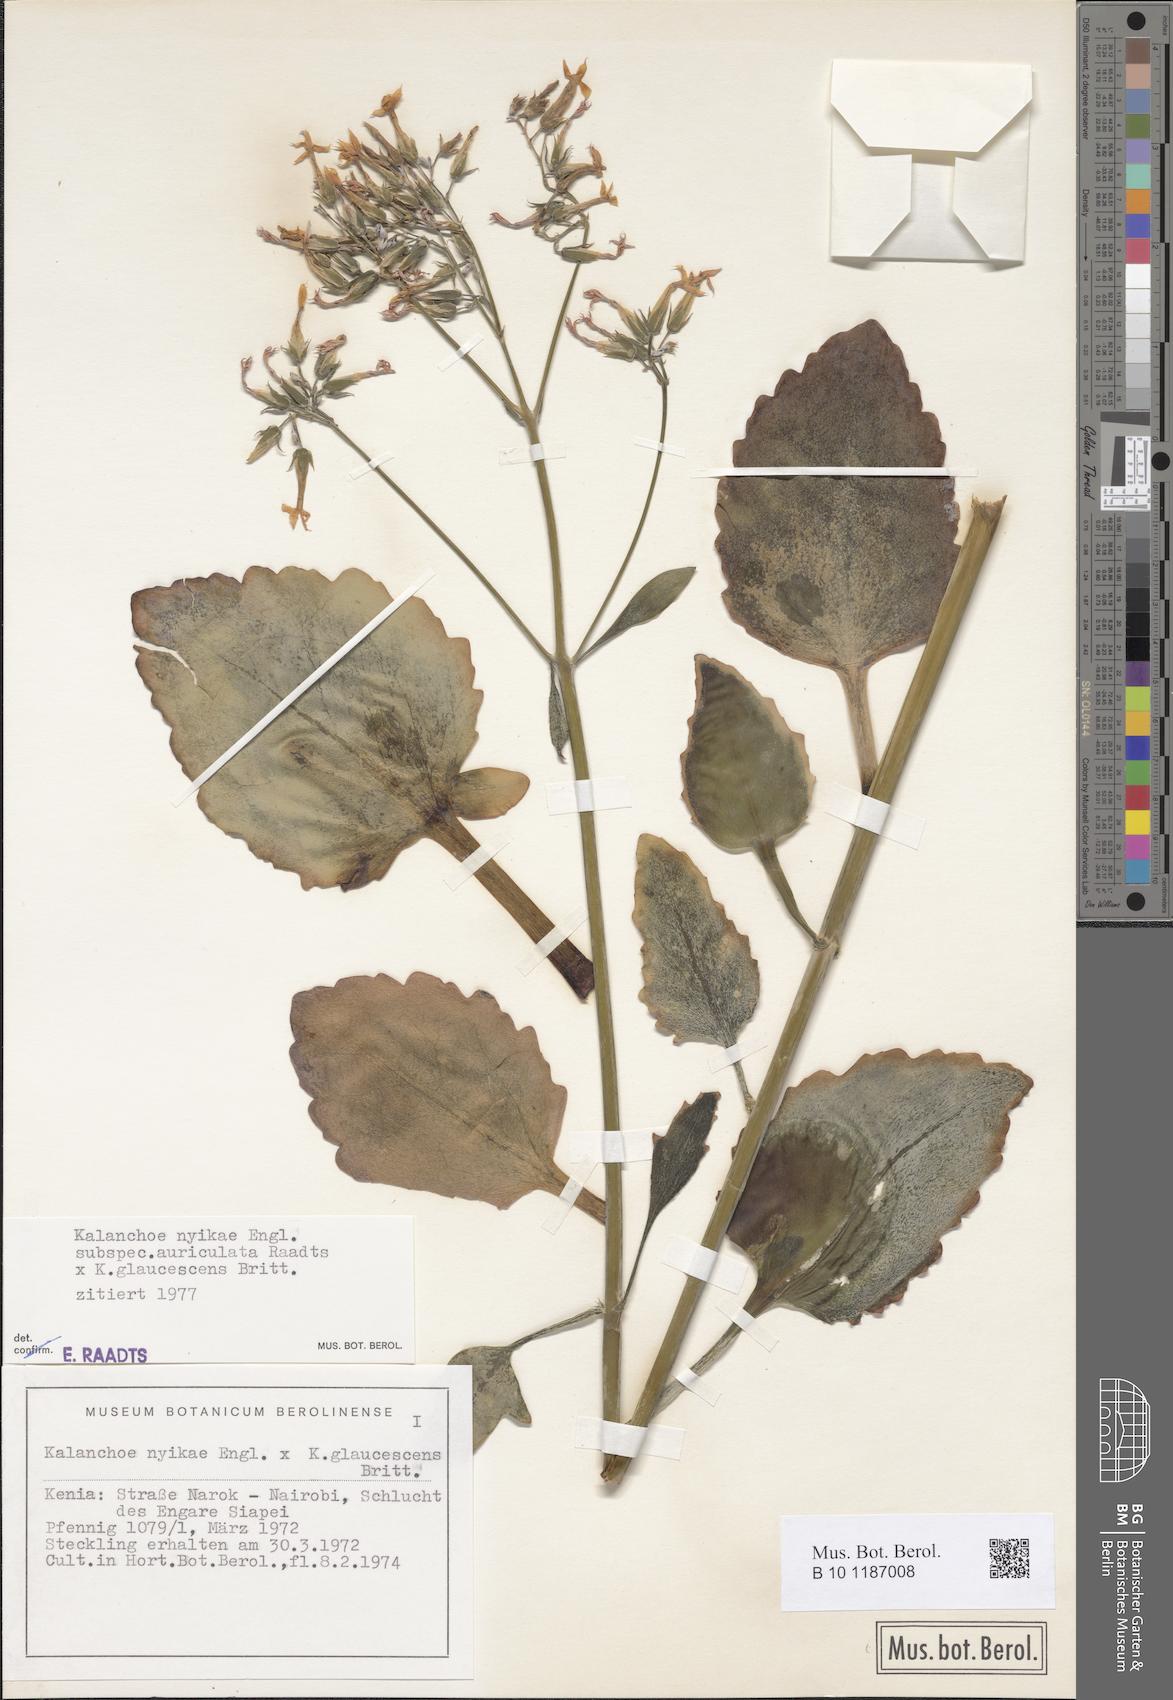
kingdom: Plantae
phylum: Tracheophyta
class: Magnoliopsida
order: Saxifragales
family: Crassulaceae
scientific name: Crassulaceae
